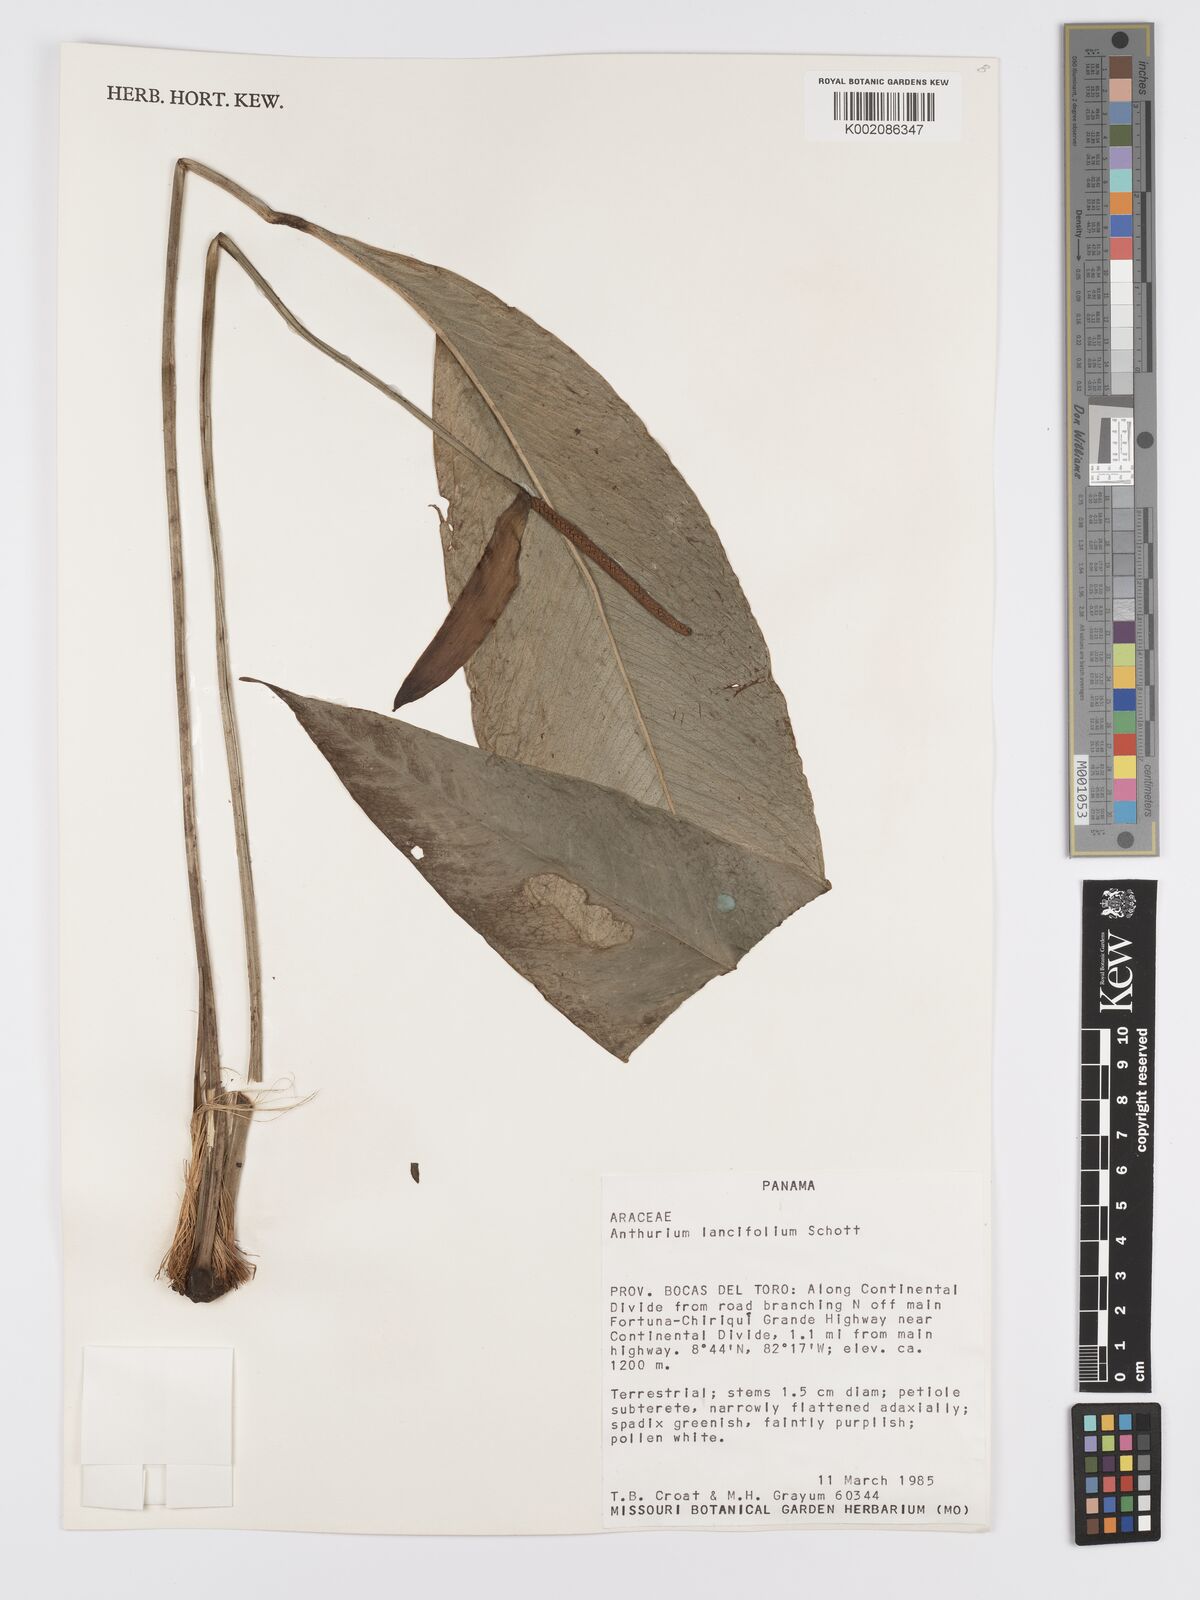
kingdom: Plantae
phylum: Tracheophyta
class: Liliopsida
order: Alismatales
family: Araceae
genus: Anthurium
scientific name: Anthurium lancifolium
